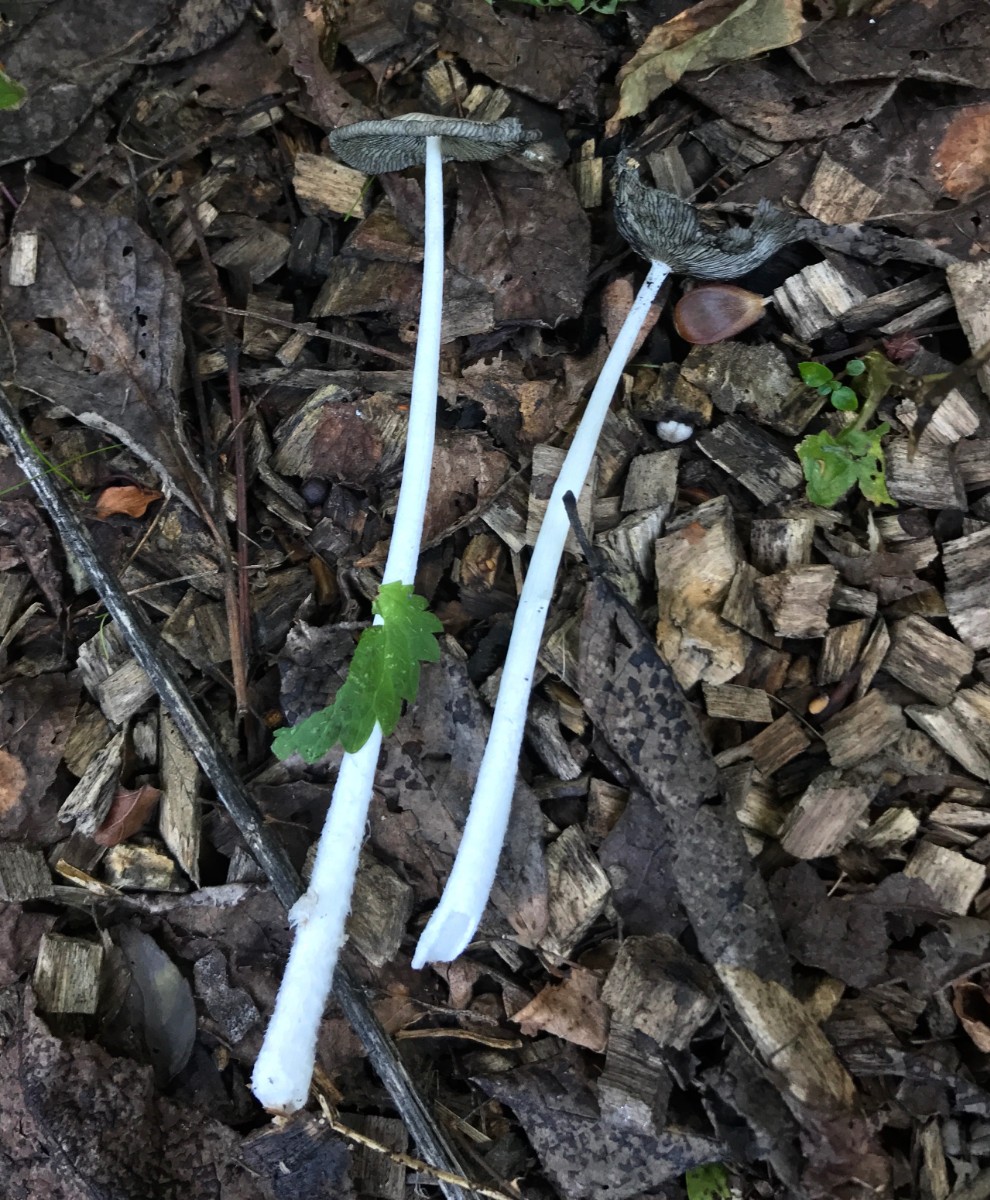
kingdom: Fungi
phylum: Basidiomycota
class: Agaricomycetes
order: Agaricales
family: Psathyrellaceae
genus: Coprinopsis
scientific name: Coprinopsis lagopus
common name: dunstokket blækhat
